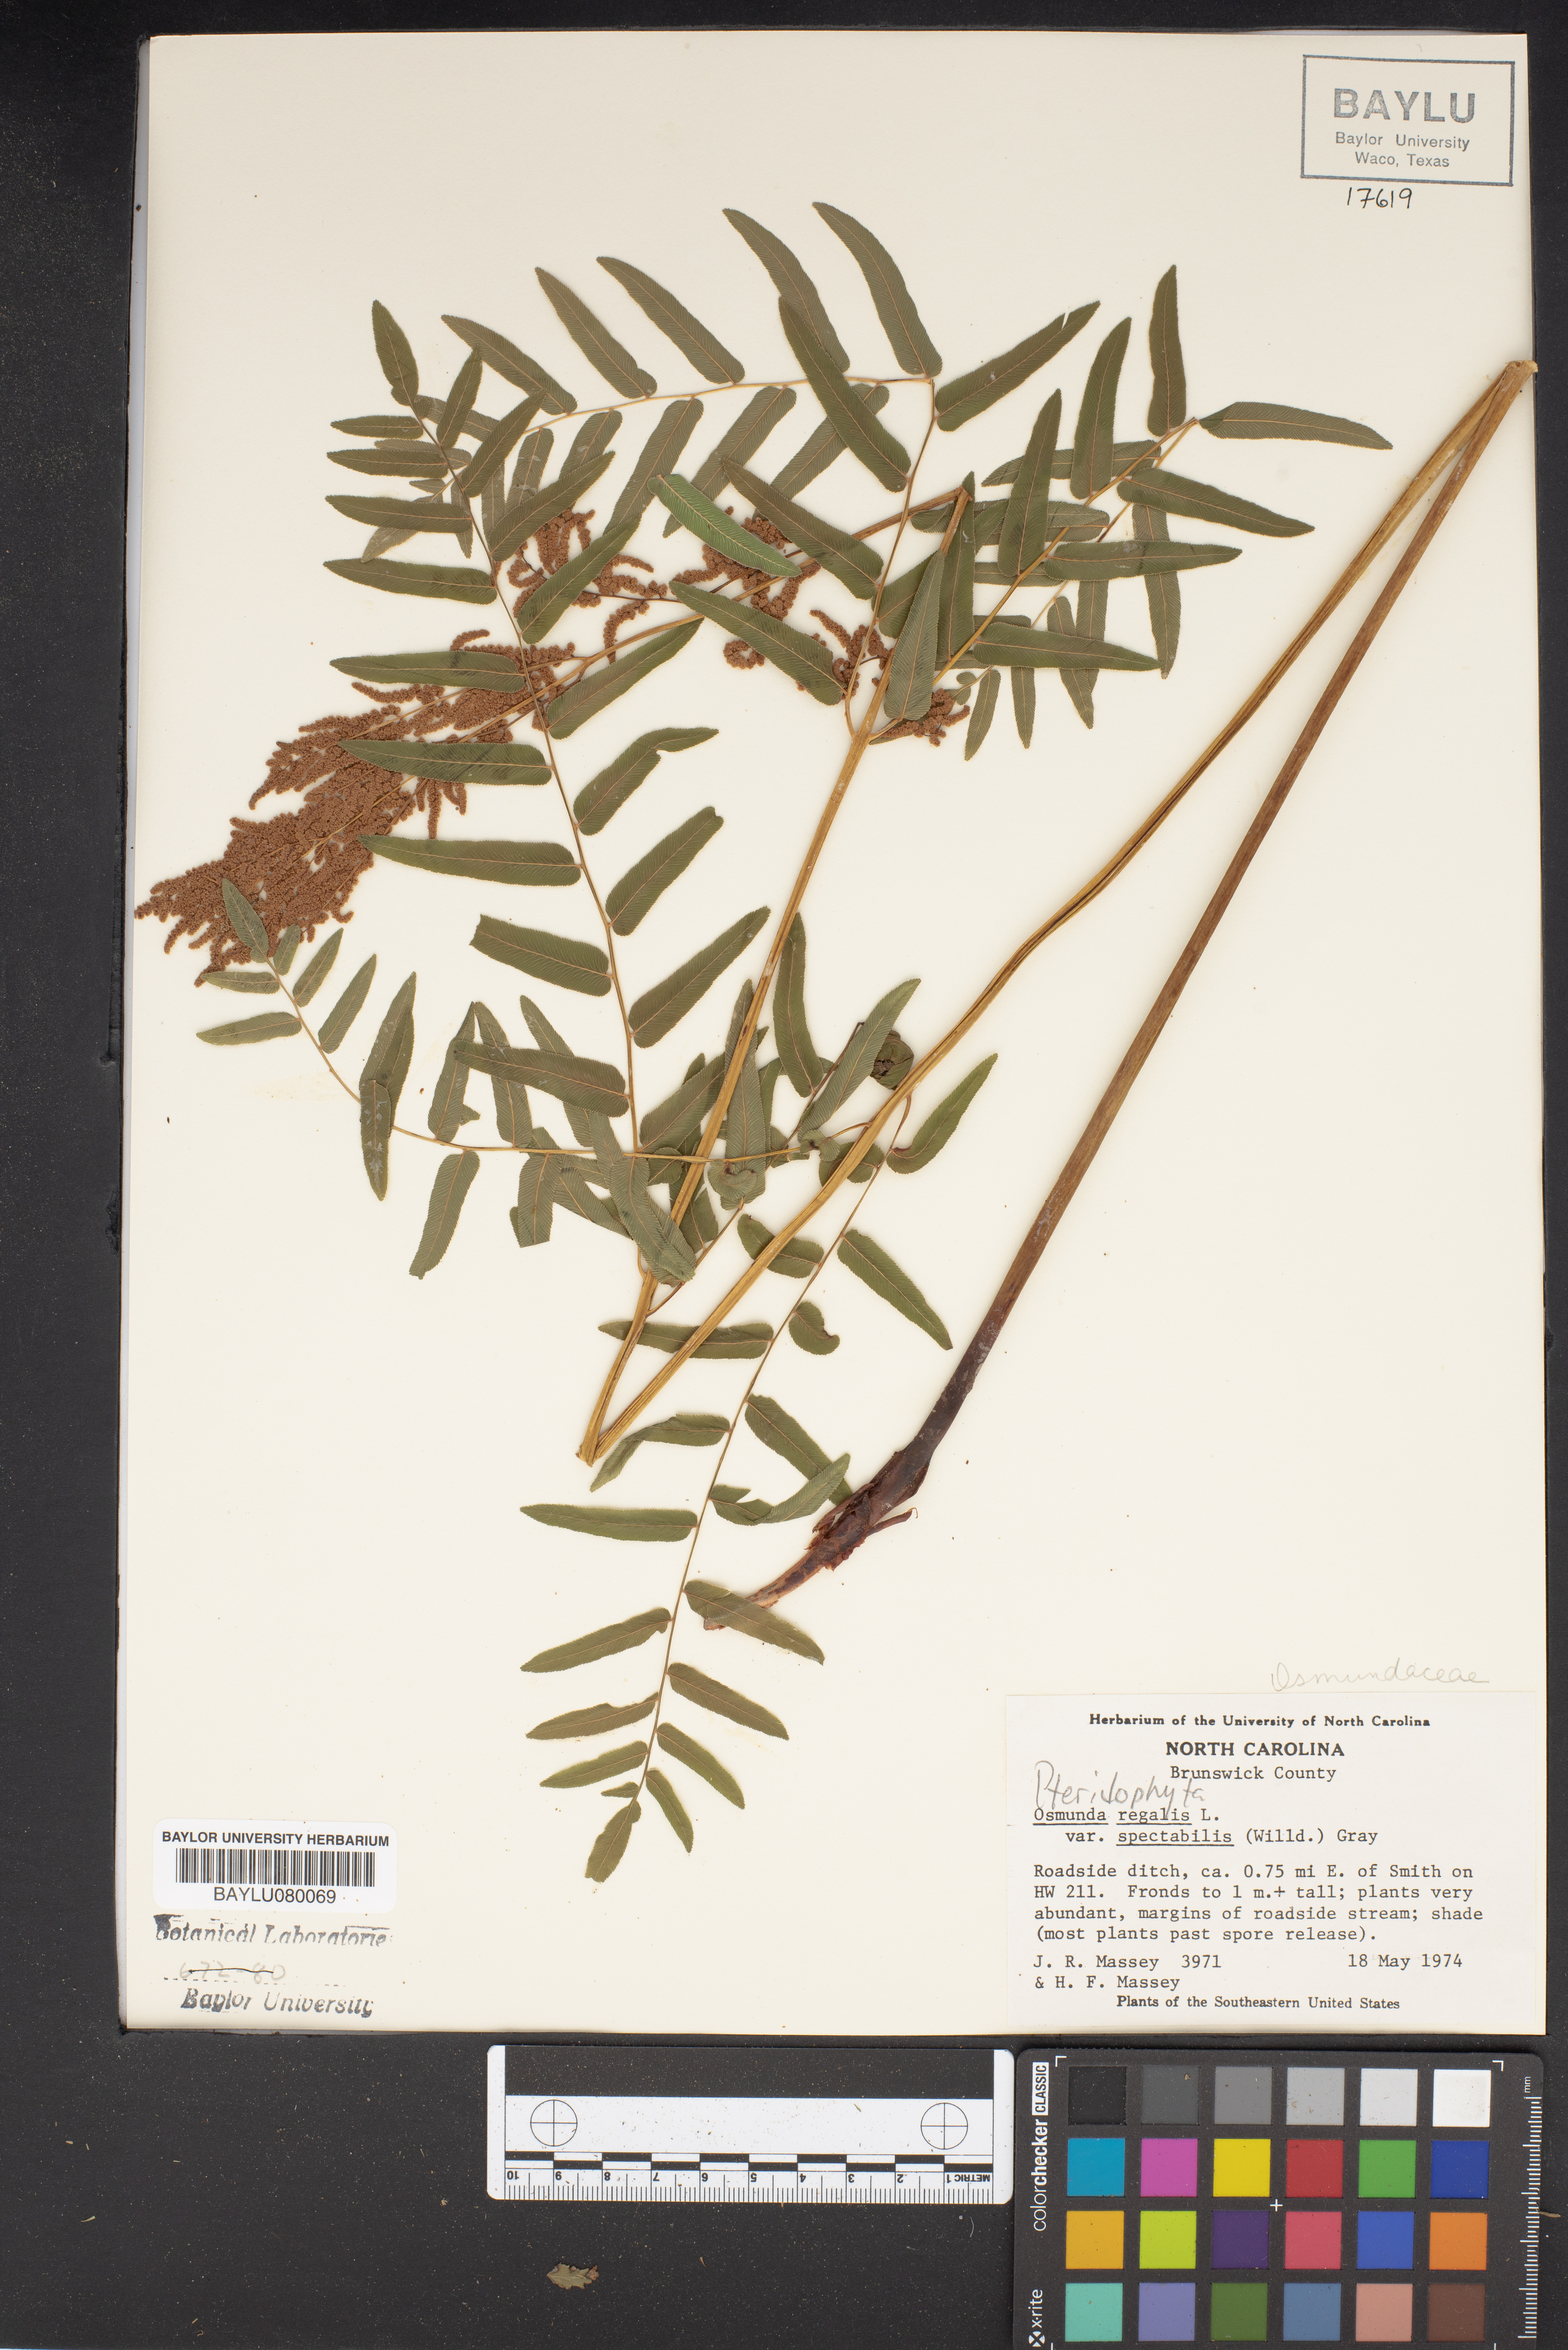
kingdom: Plantae
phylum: Tracheophyta
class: Polypodiopsida
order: Osmundales
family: Osmundaceae
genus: Osmunda
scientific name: Osmunda spectabilis
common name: American royal fern
